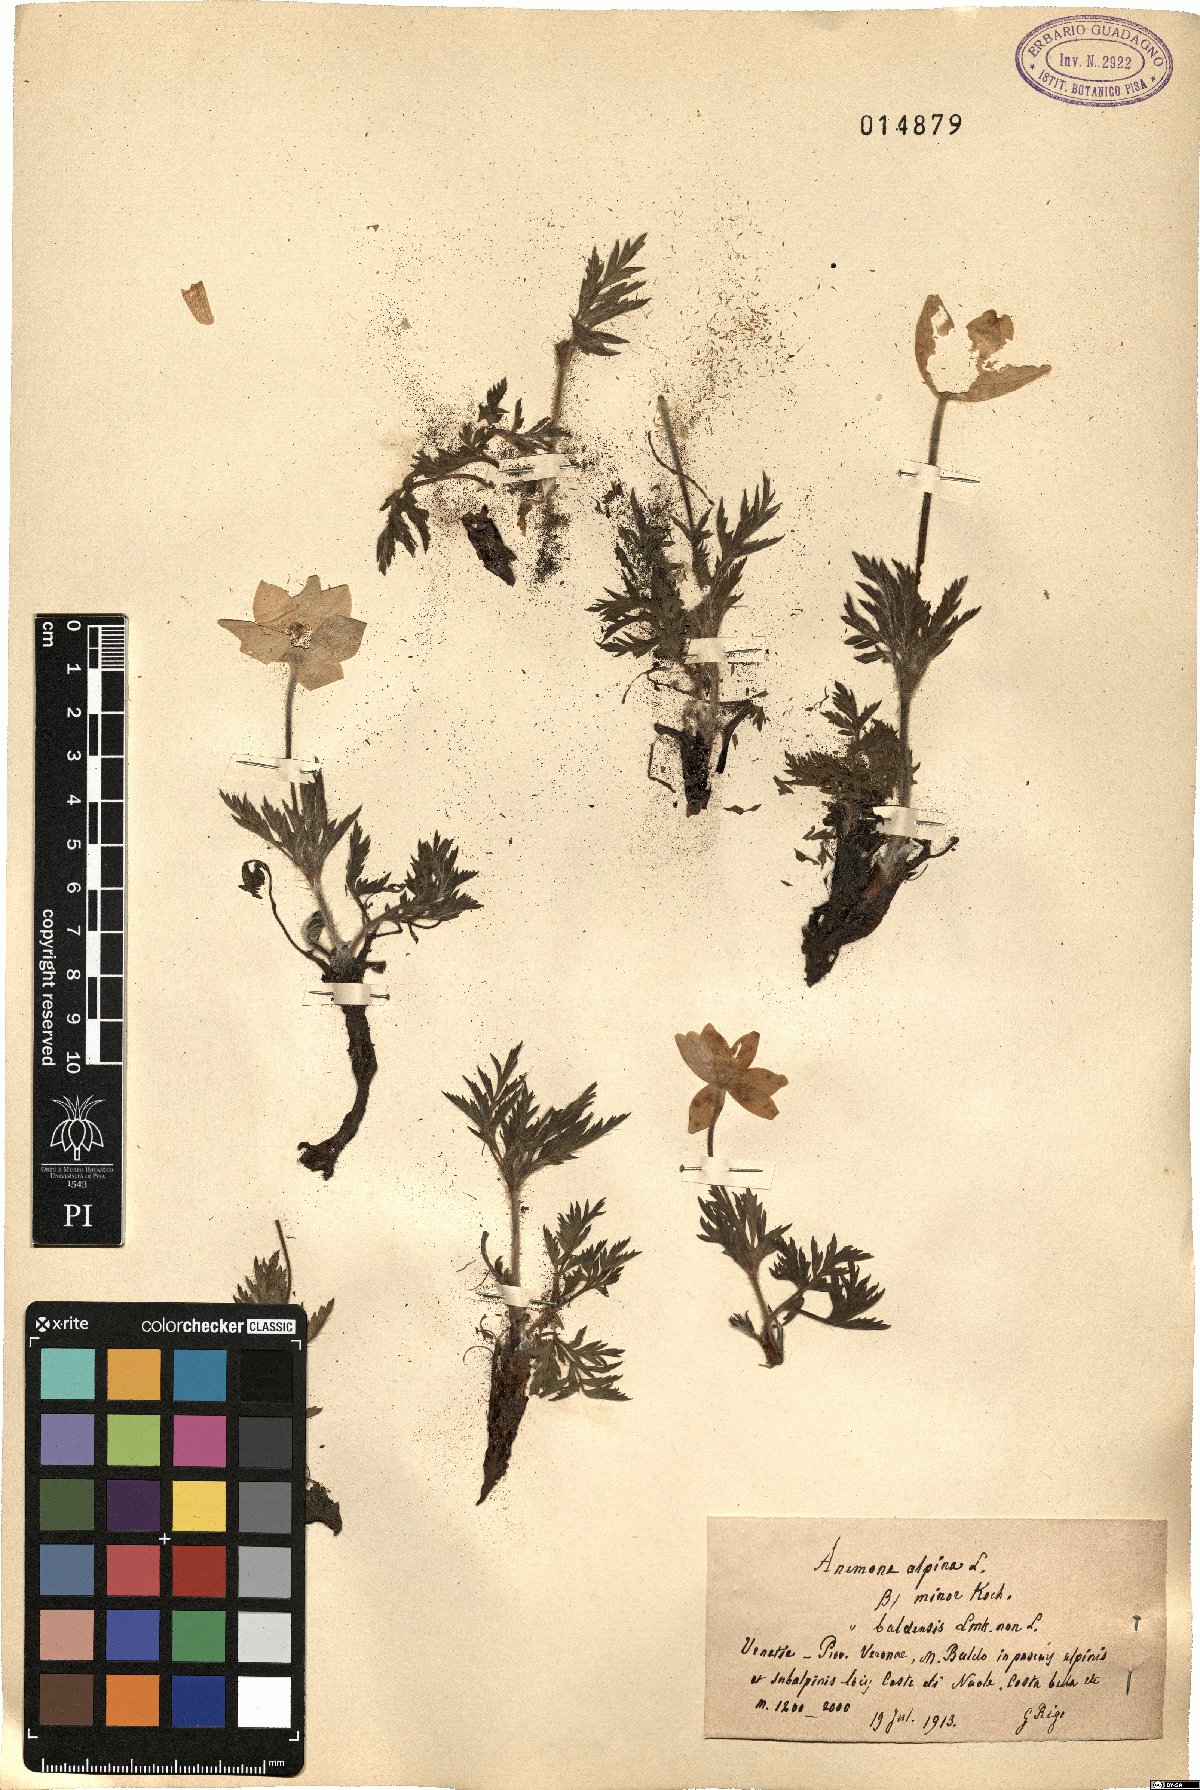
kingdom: Plantae
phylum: Tracheophyta
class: Magnoliopsida
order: Ranunculales
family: Ranunculaceae
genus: Anemone
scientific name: Anemone baldensis
